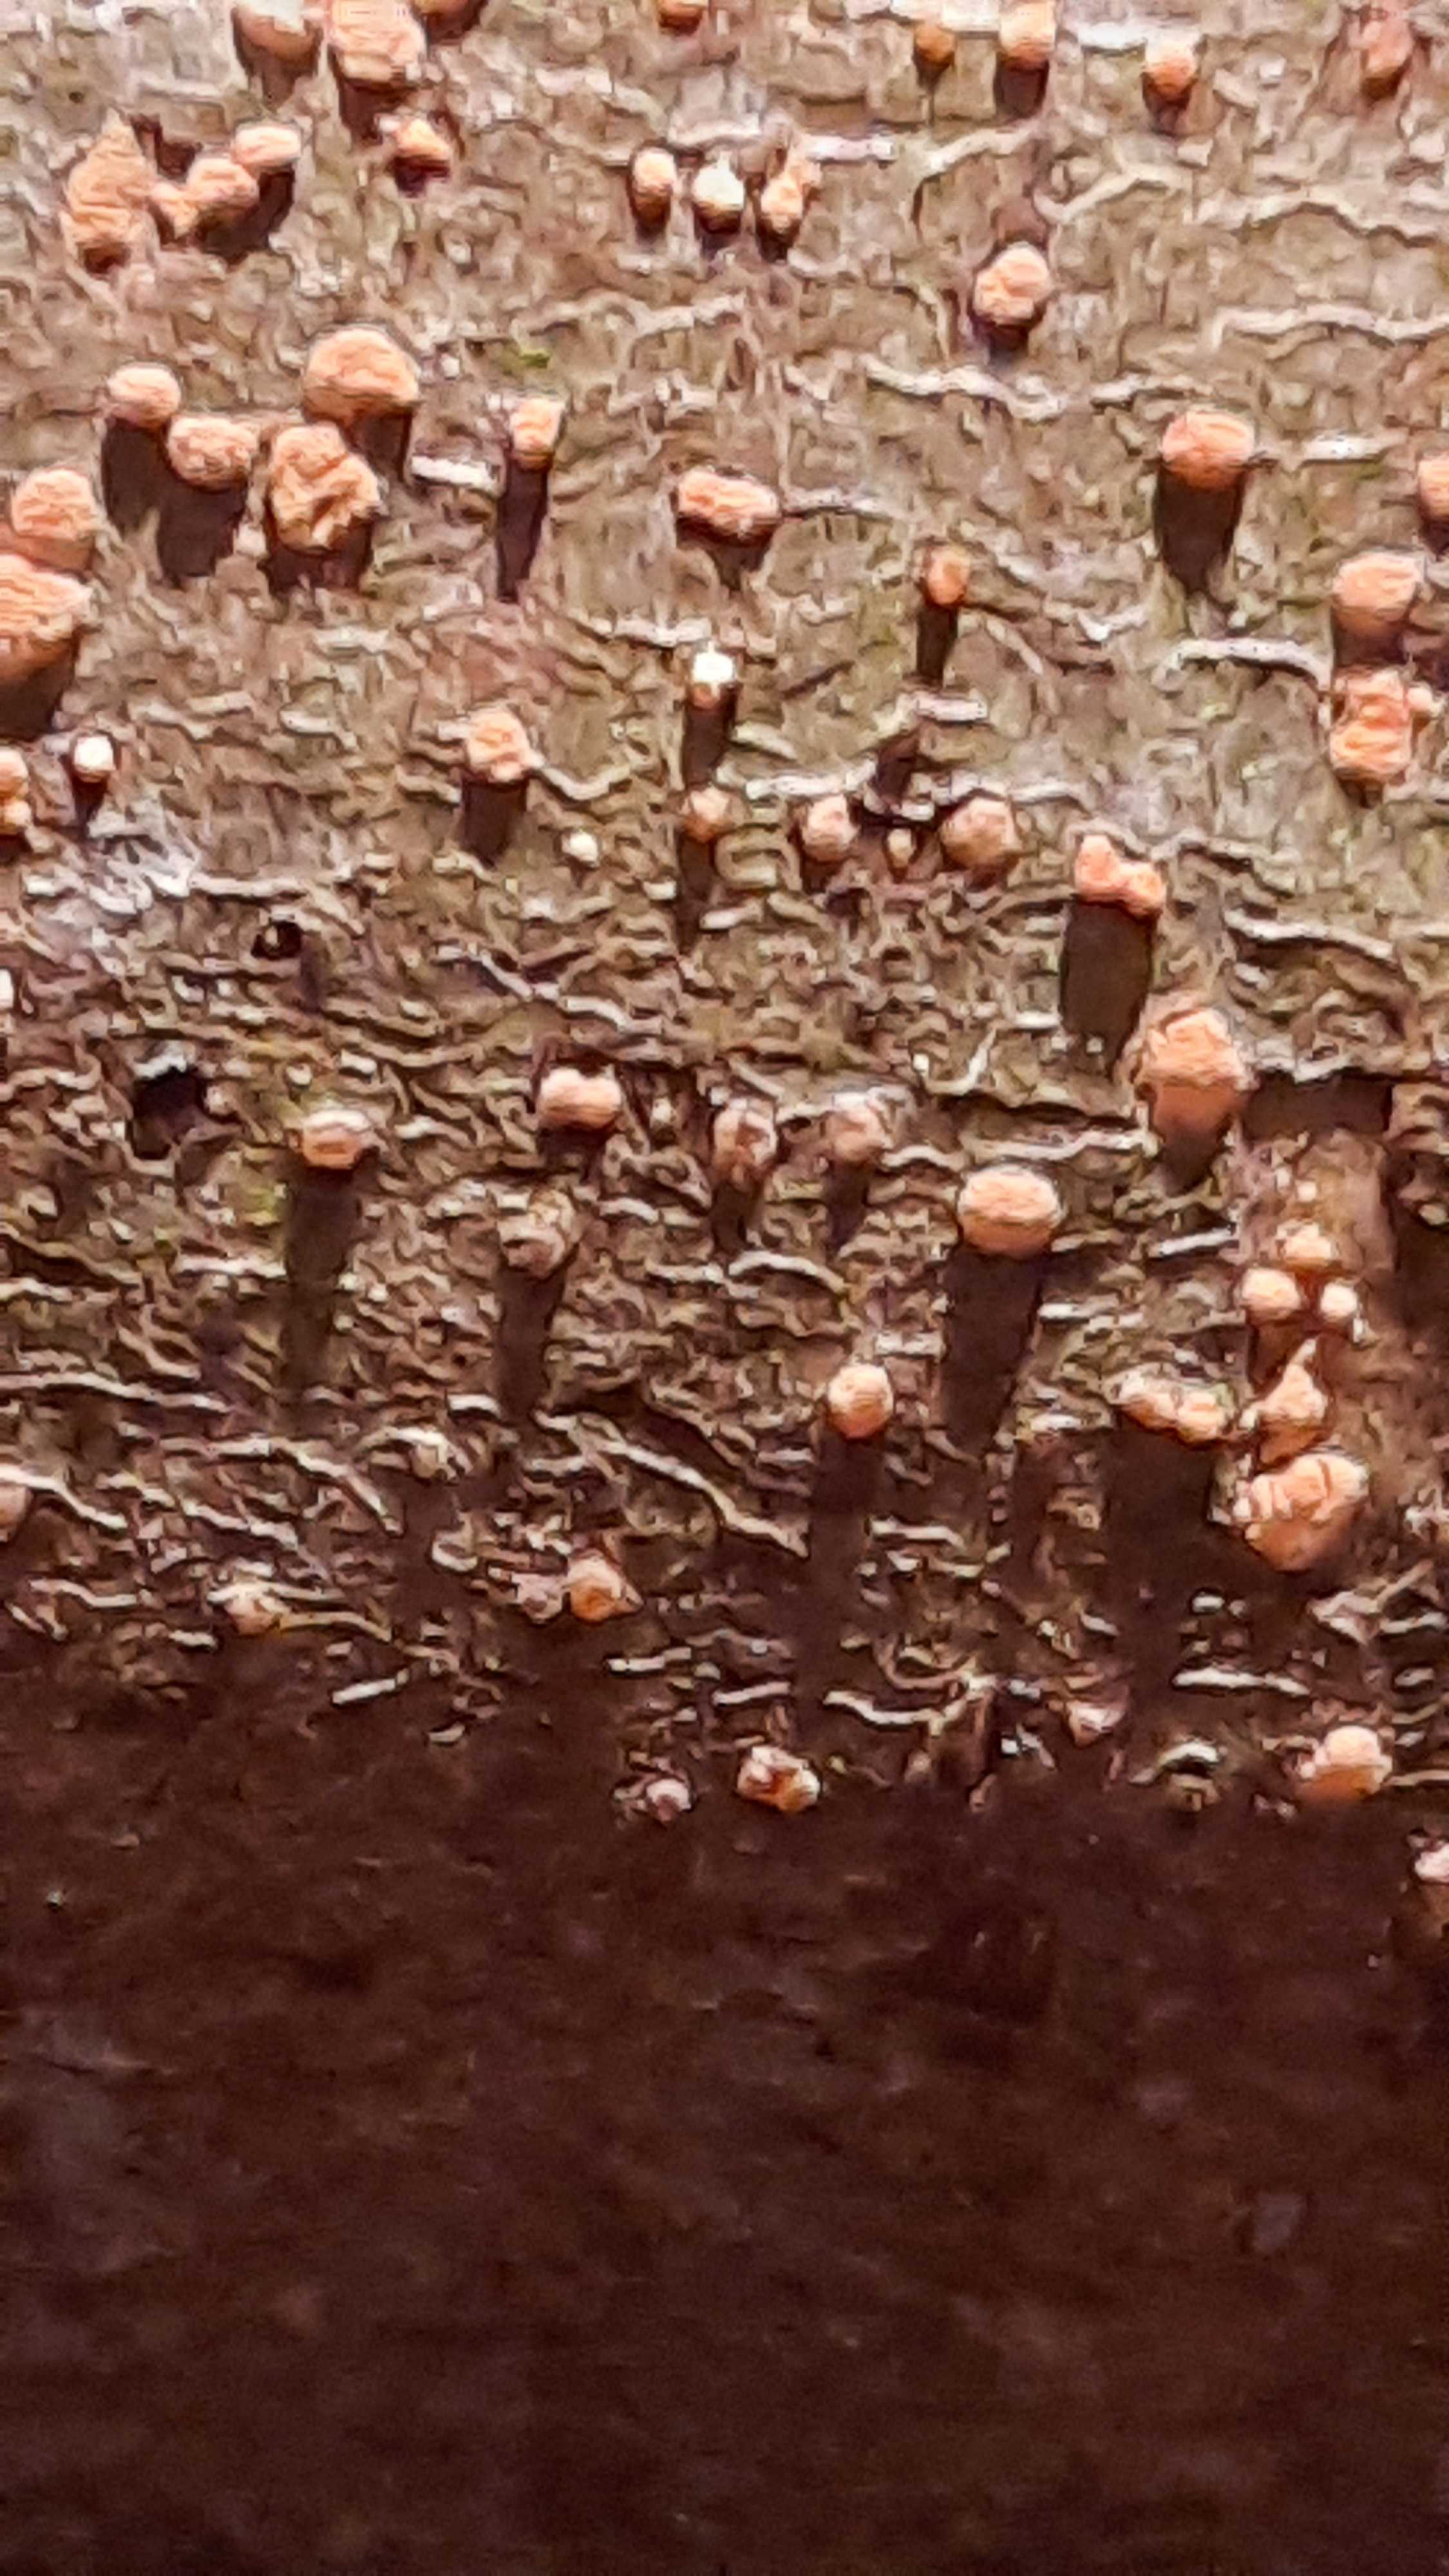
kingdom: Fungi
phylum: Ascomycota
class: Sordariomycetes
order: Hypocreales
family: Nectriaceae
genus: Nectria
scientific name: Nectria cinnabarina
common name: almindelig cinnobersvamp
